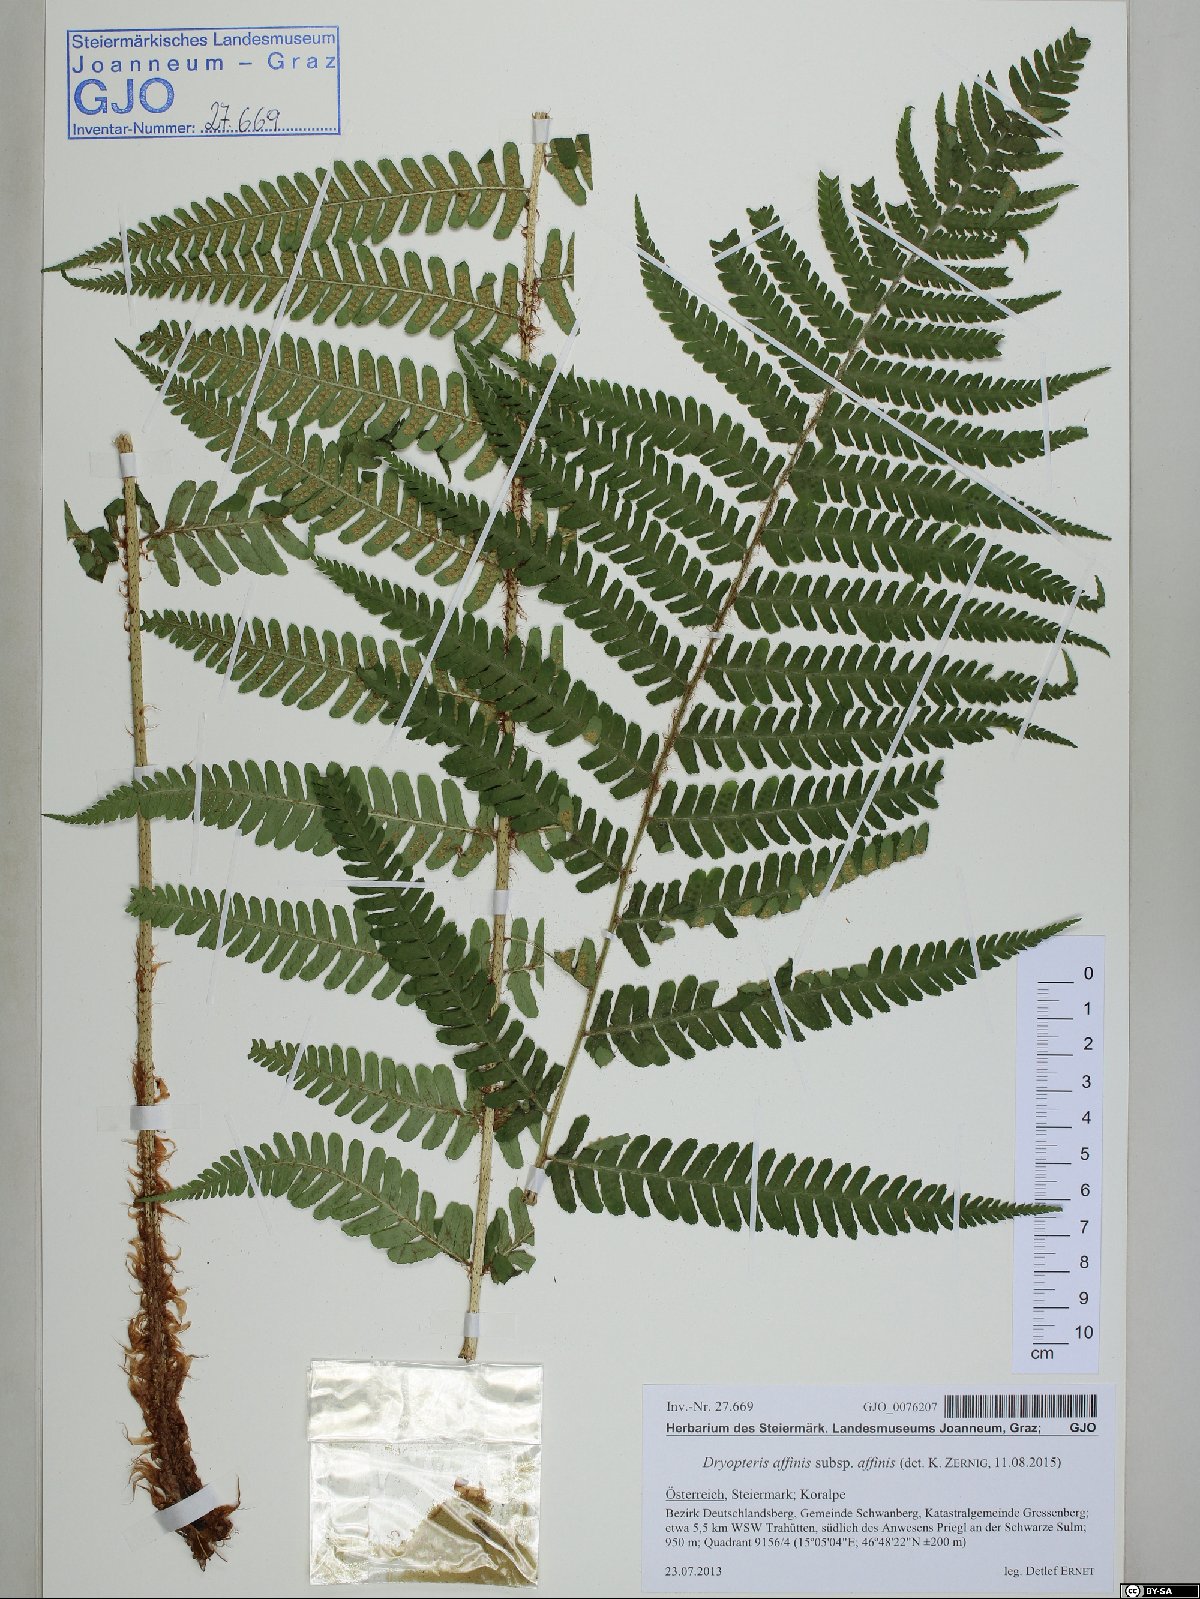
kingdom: Plantae
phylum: Tracheophyta
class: Polypodiopsida
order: Polypodiales
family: Dryopteridaceae
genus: Dryopteris
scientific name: Dryopteris affinis
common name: Scaly male fern
